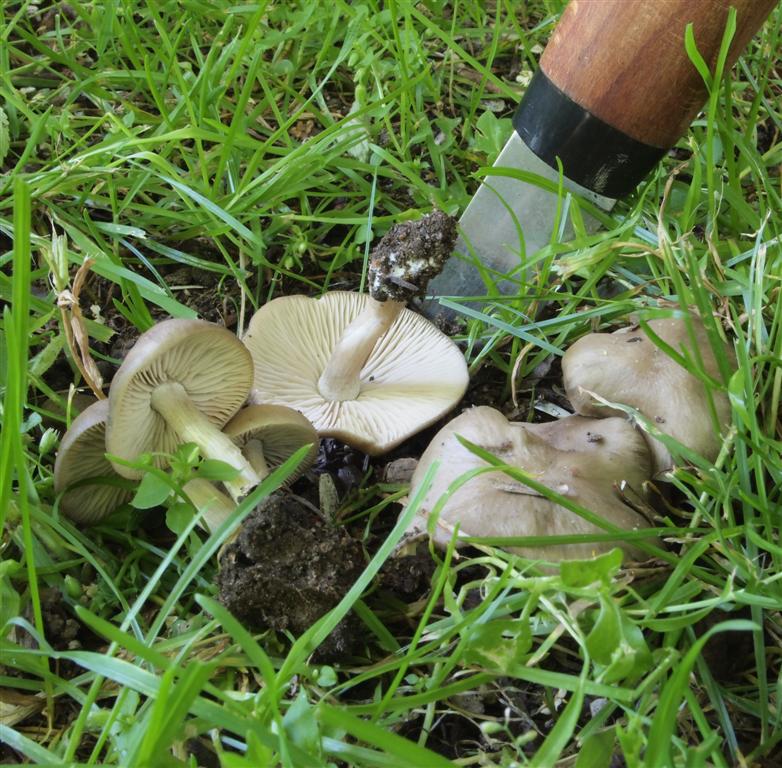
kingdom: Fungi
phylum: Basidiomycota
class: Agaricomycetes
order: Agaricales
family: Entolomataceae
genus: Entoloma
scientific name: Entoloma sordidulum
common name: smudsig rødblad
